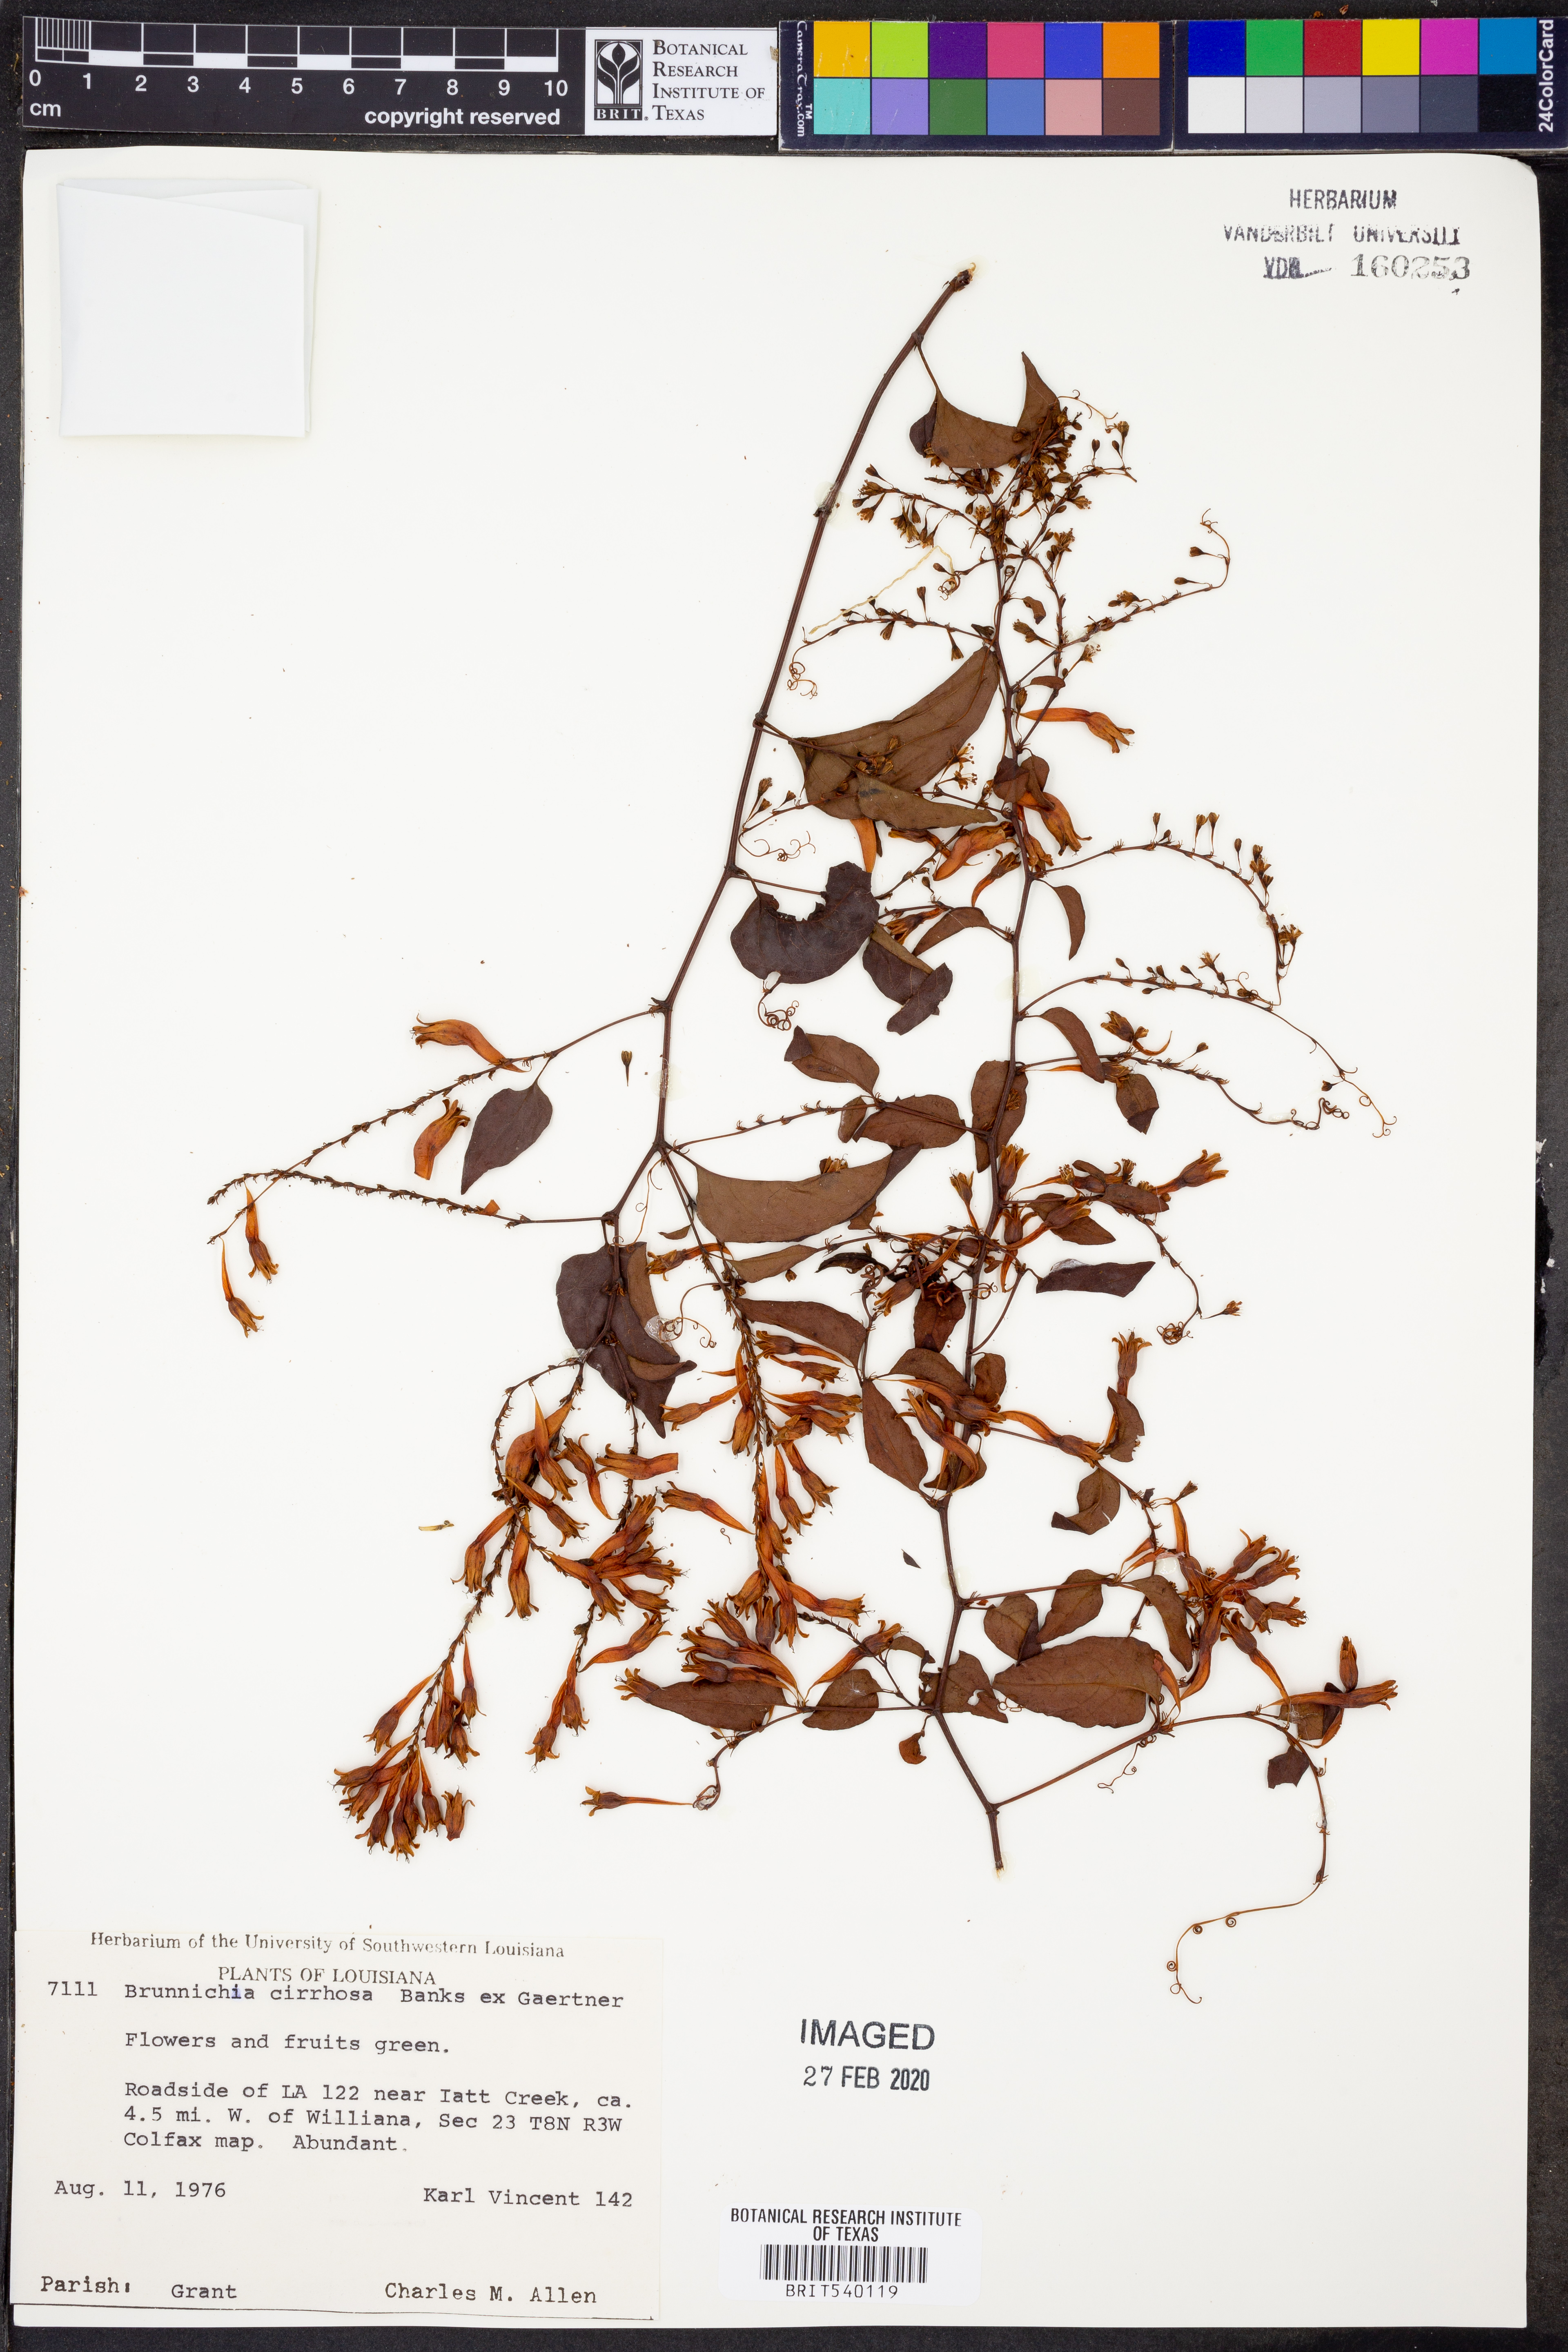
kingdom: Plantae
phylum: Tracheophyta
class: Magnoliopsida
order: Caryophyllales
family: Polygonaceae
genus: Brunnichia
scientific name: Brunnichia ovata
